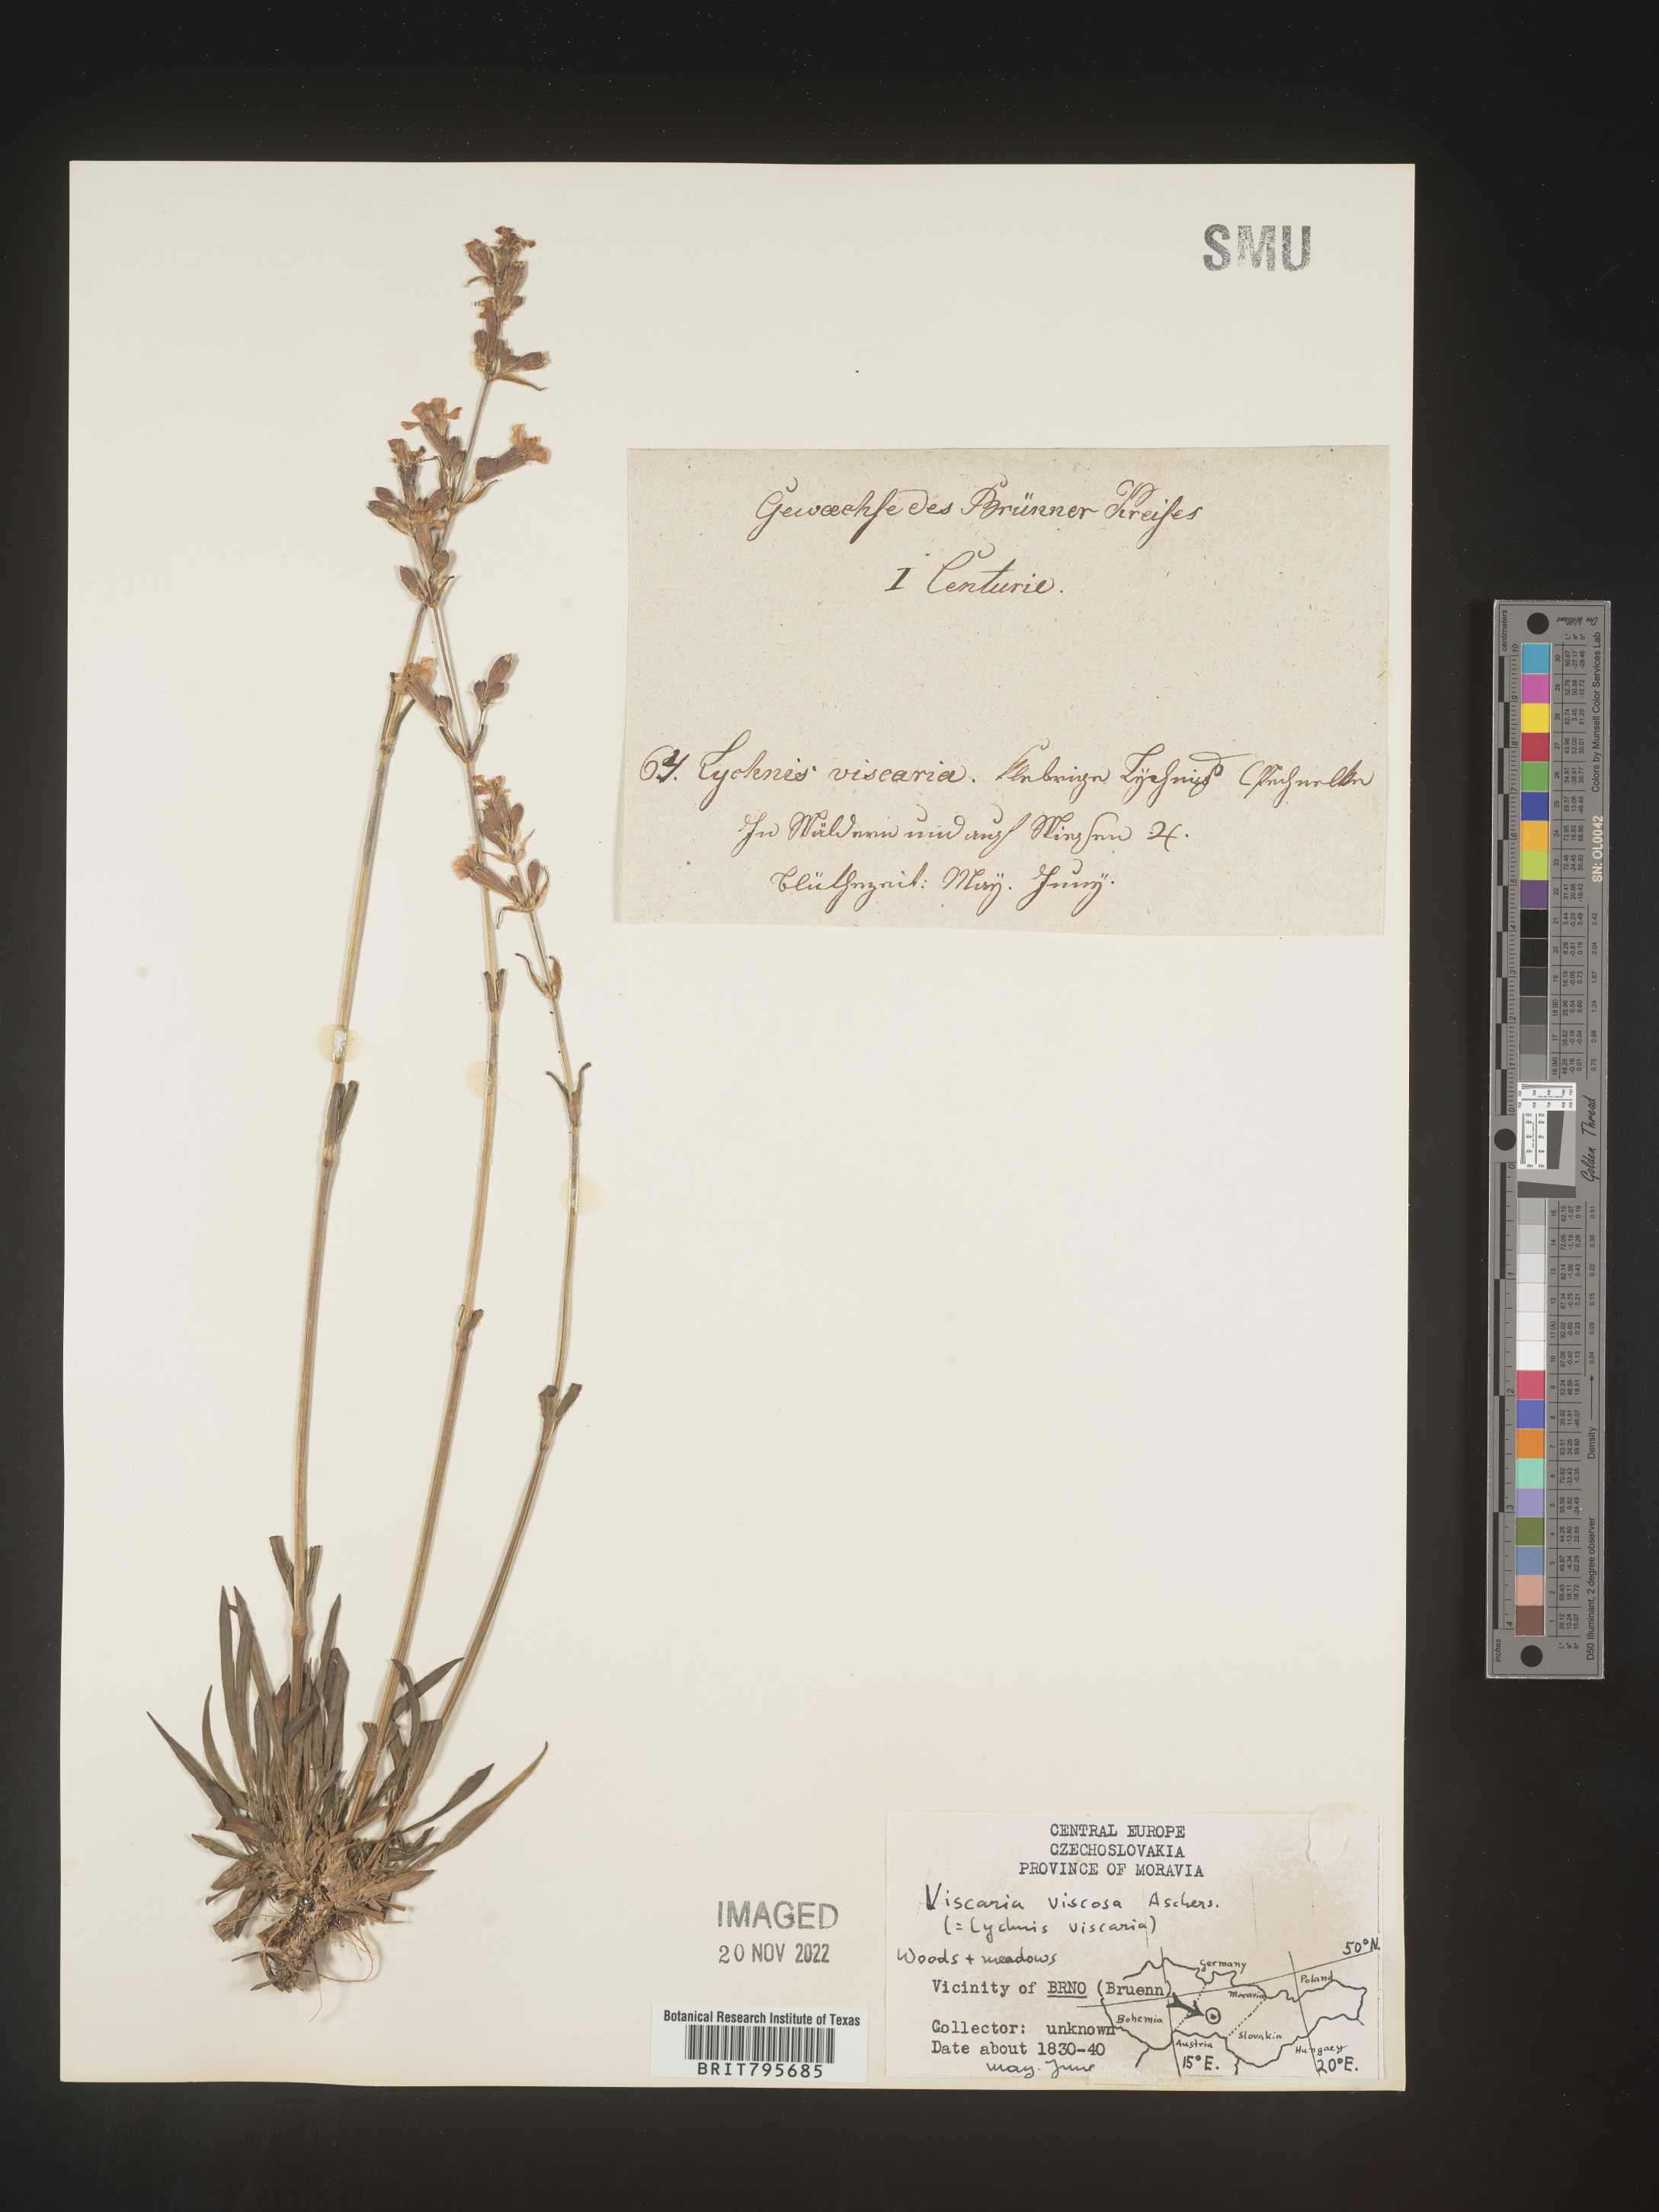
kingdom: Plantae
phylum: Tracheophyta
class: Magnoliopsida
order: Caryophyllales
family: Caryophyllaceae
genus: Viscaria
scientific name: Viscaria
